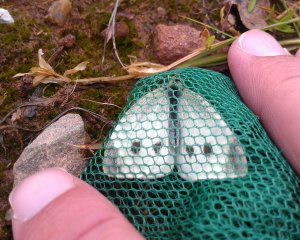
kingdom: Animalia
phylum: Arthropoda
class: Insecta
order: Lepidoptera
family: Pieridae
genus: Pieris
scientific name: Pieris rapae
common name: Cabbage White
